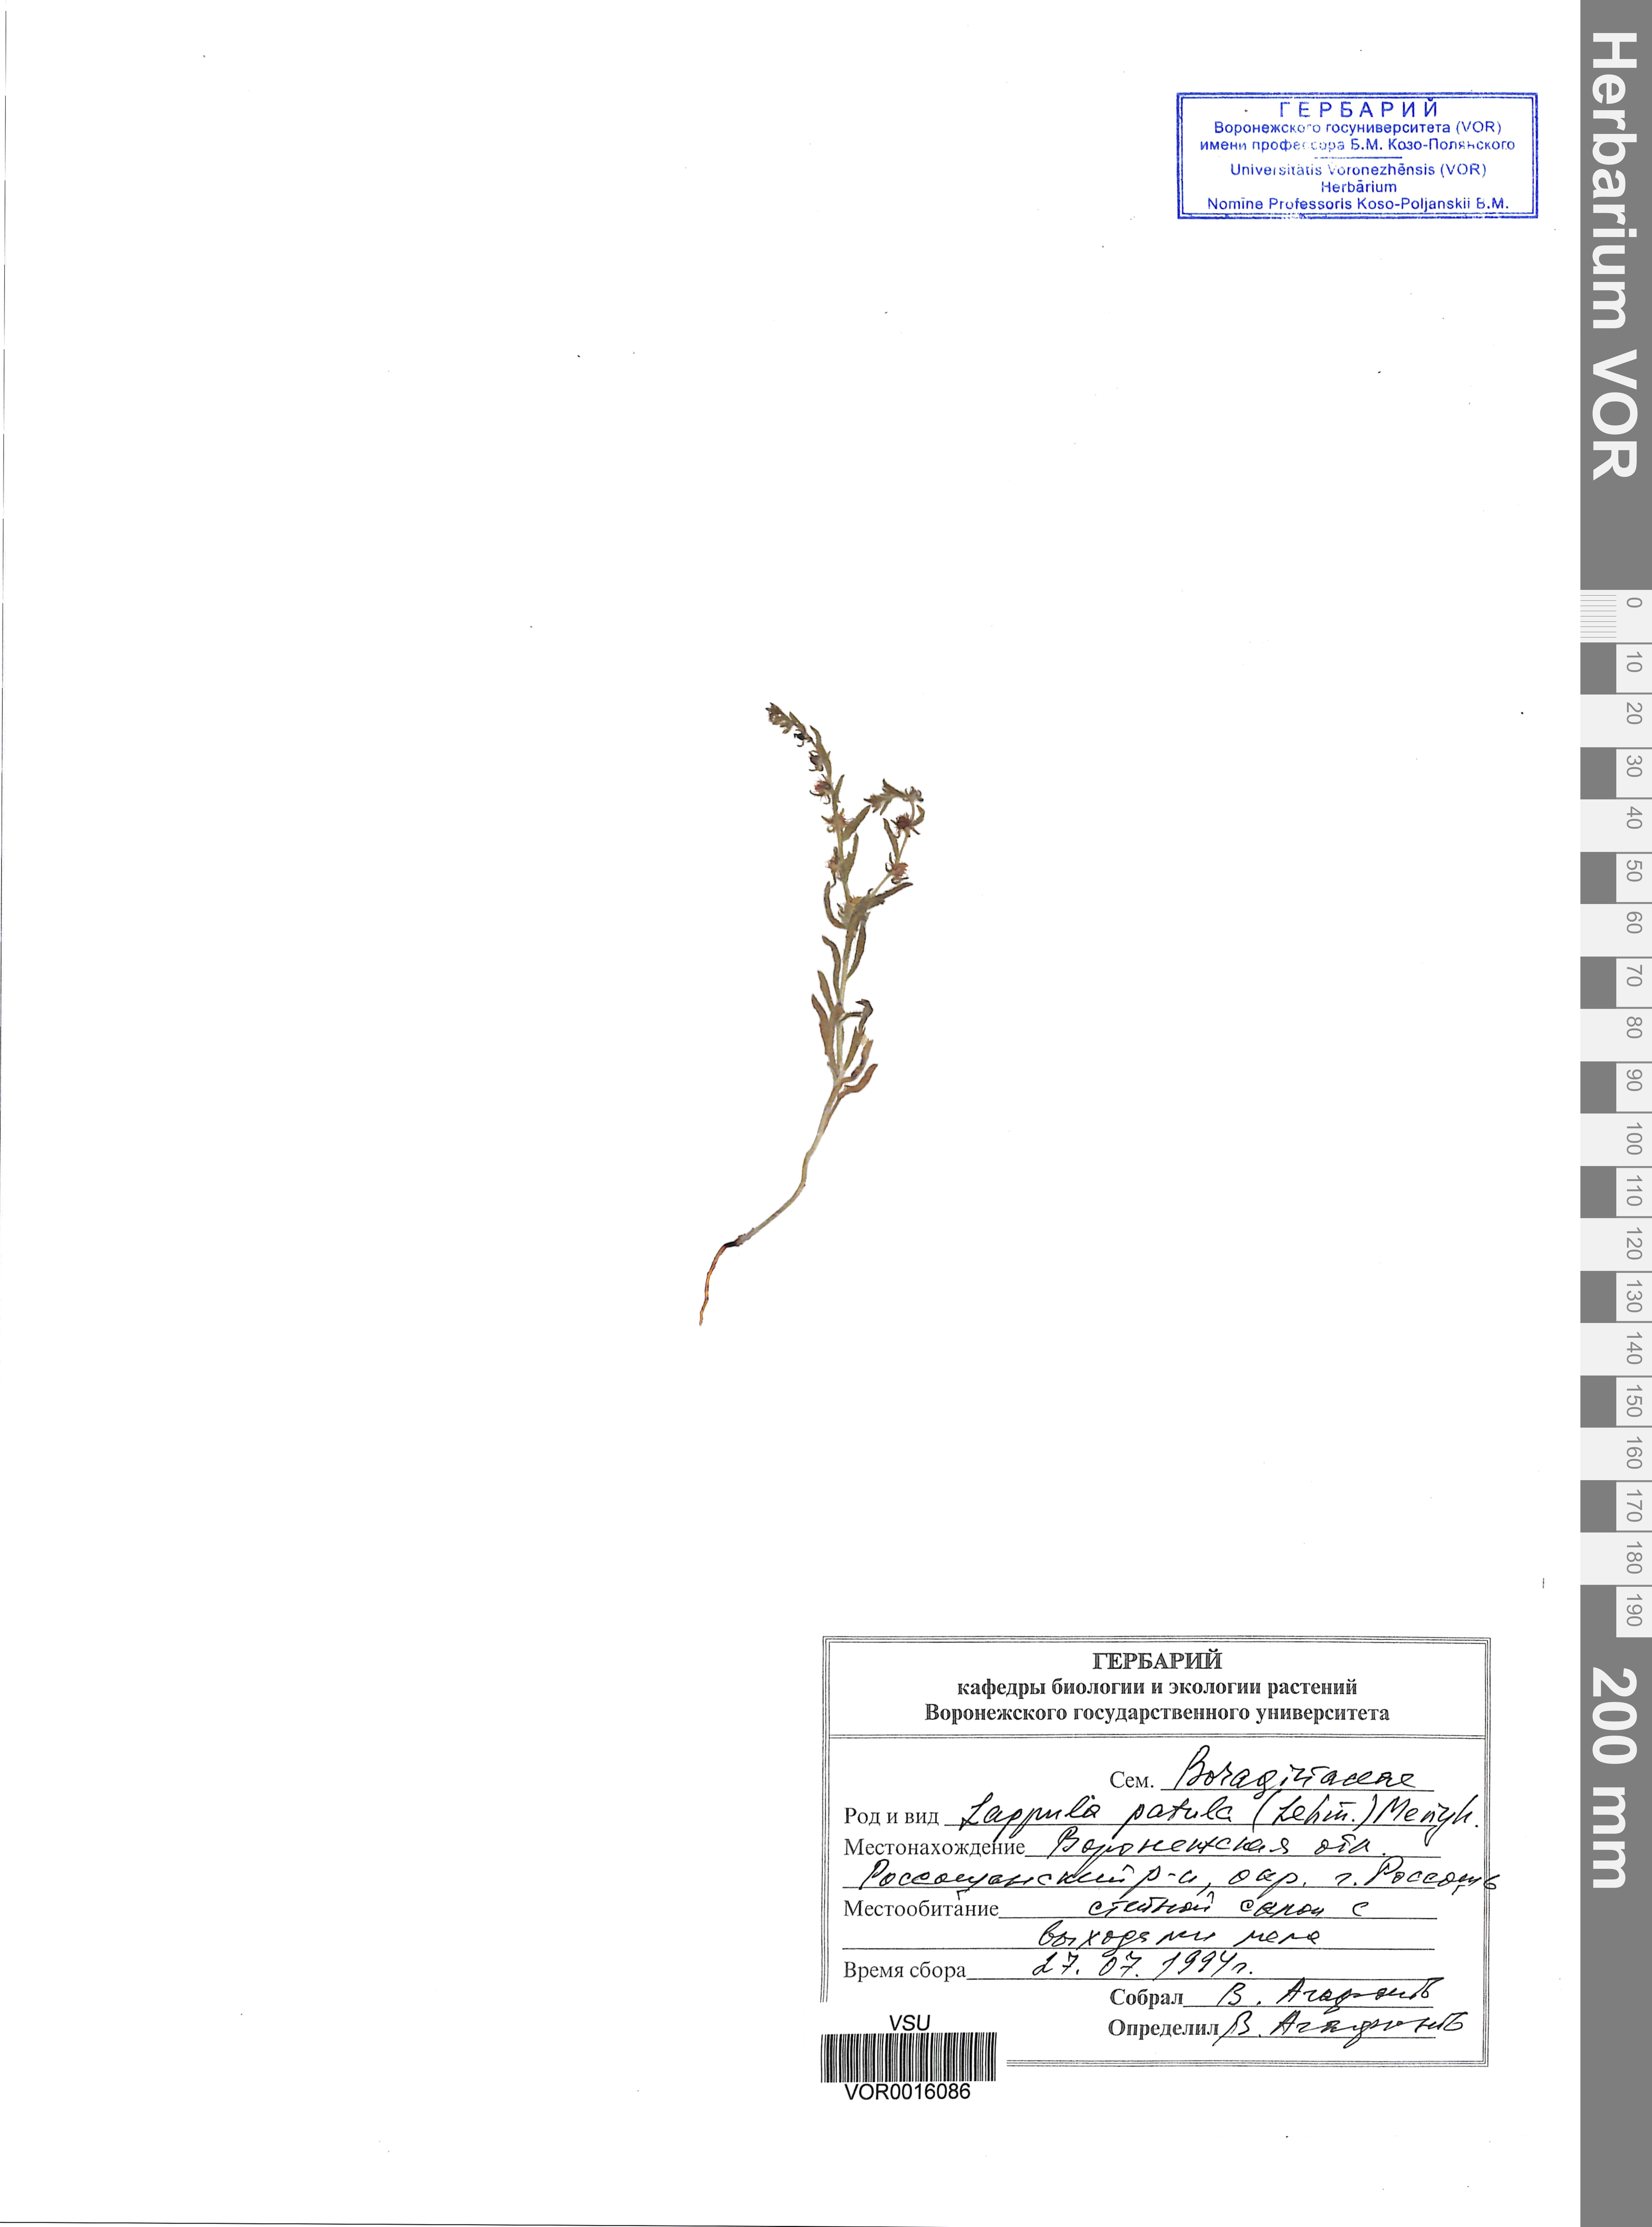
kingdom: Plantae
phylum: Tracheophyta
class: Magnoliopsida
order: Boraginales
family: Boraginaceae
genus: Lappula
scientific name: Lappula patula
